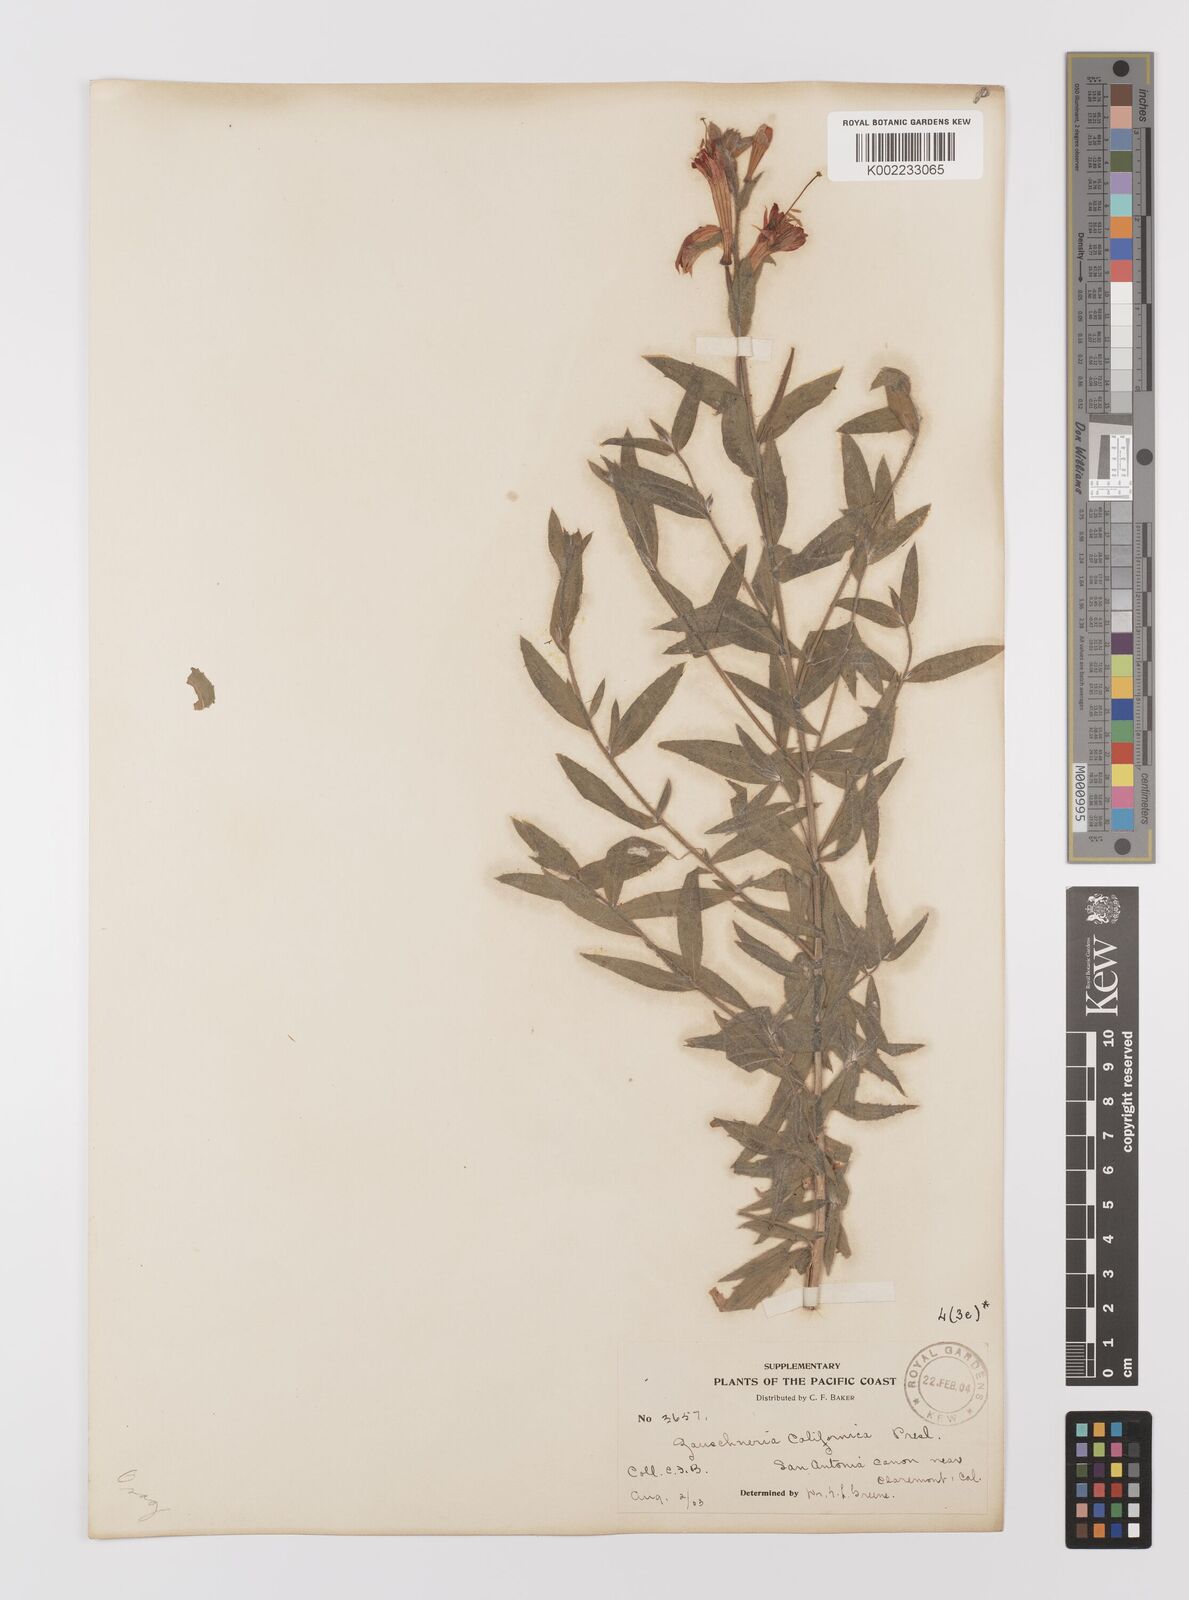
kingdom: Plantae
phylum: Tracheophyta
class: Magnoliopsida
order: Myrtales
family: Onagraceae
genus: Epilobium
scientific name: Epilobium
